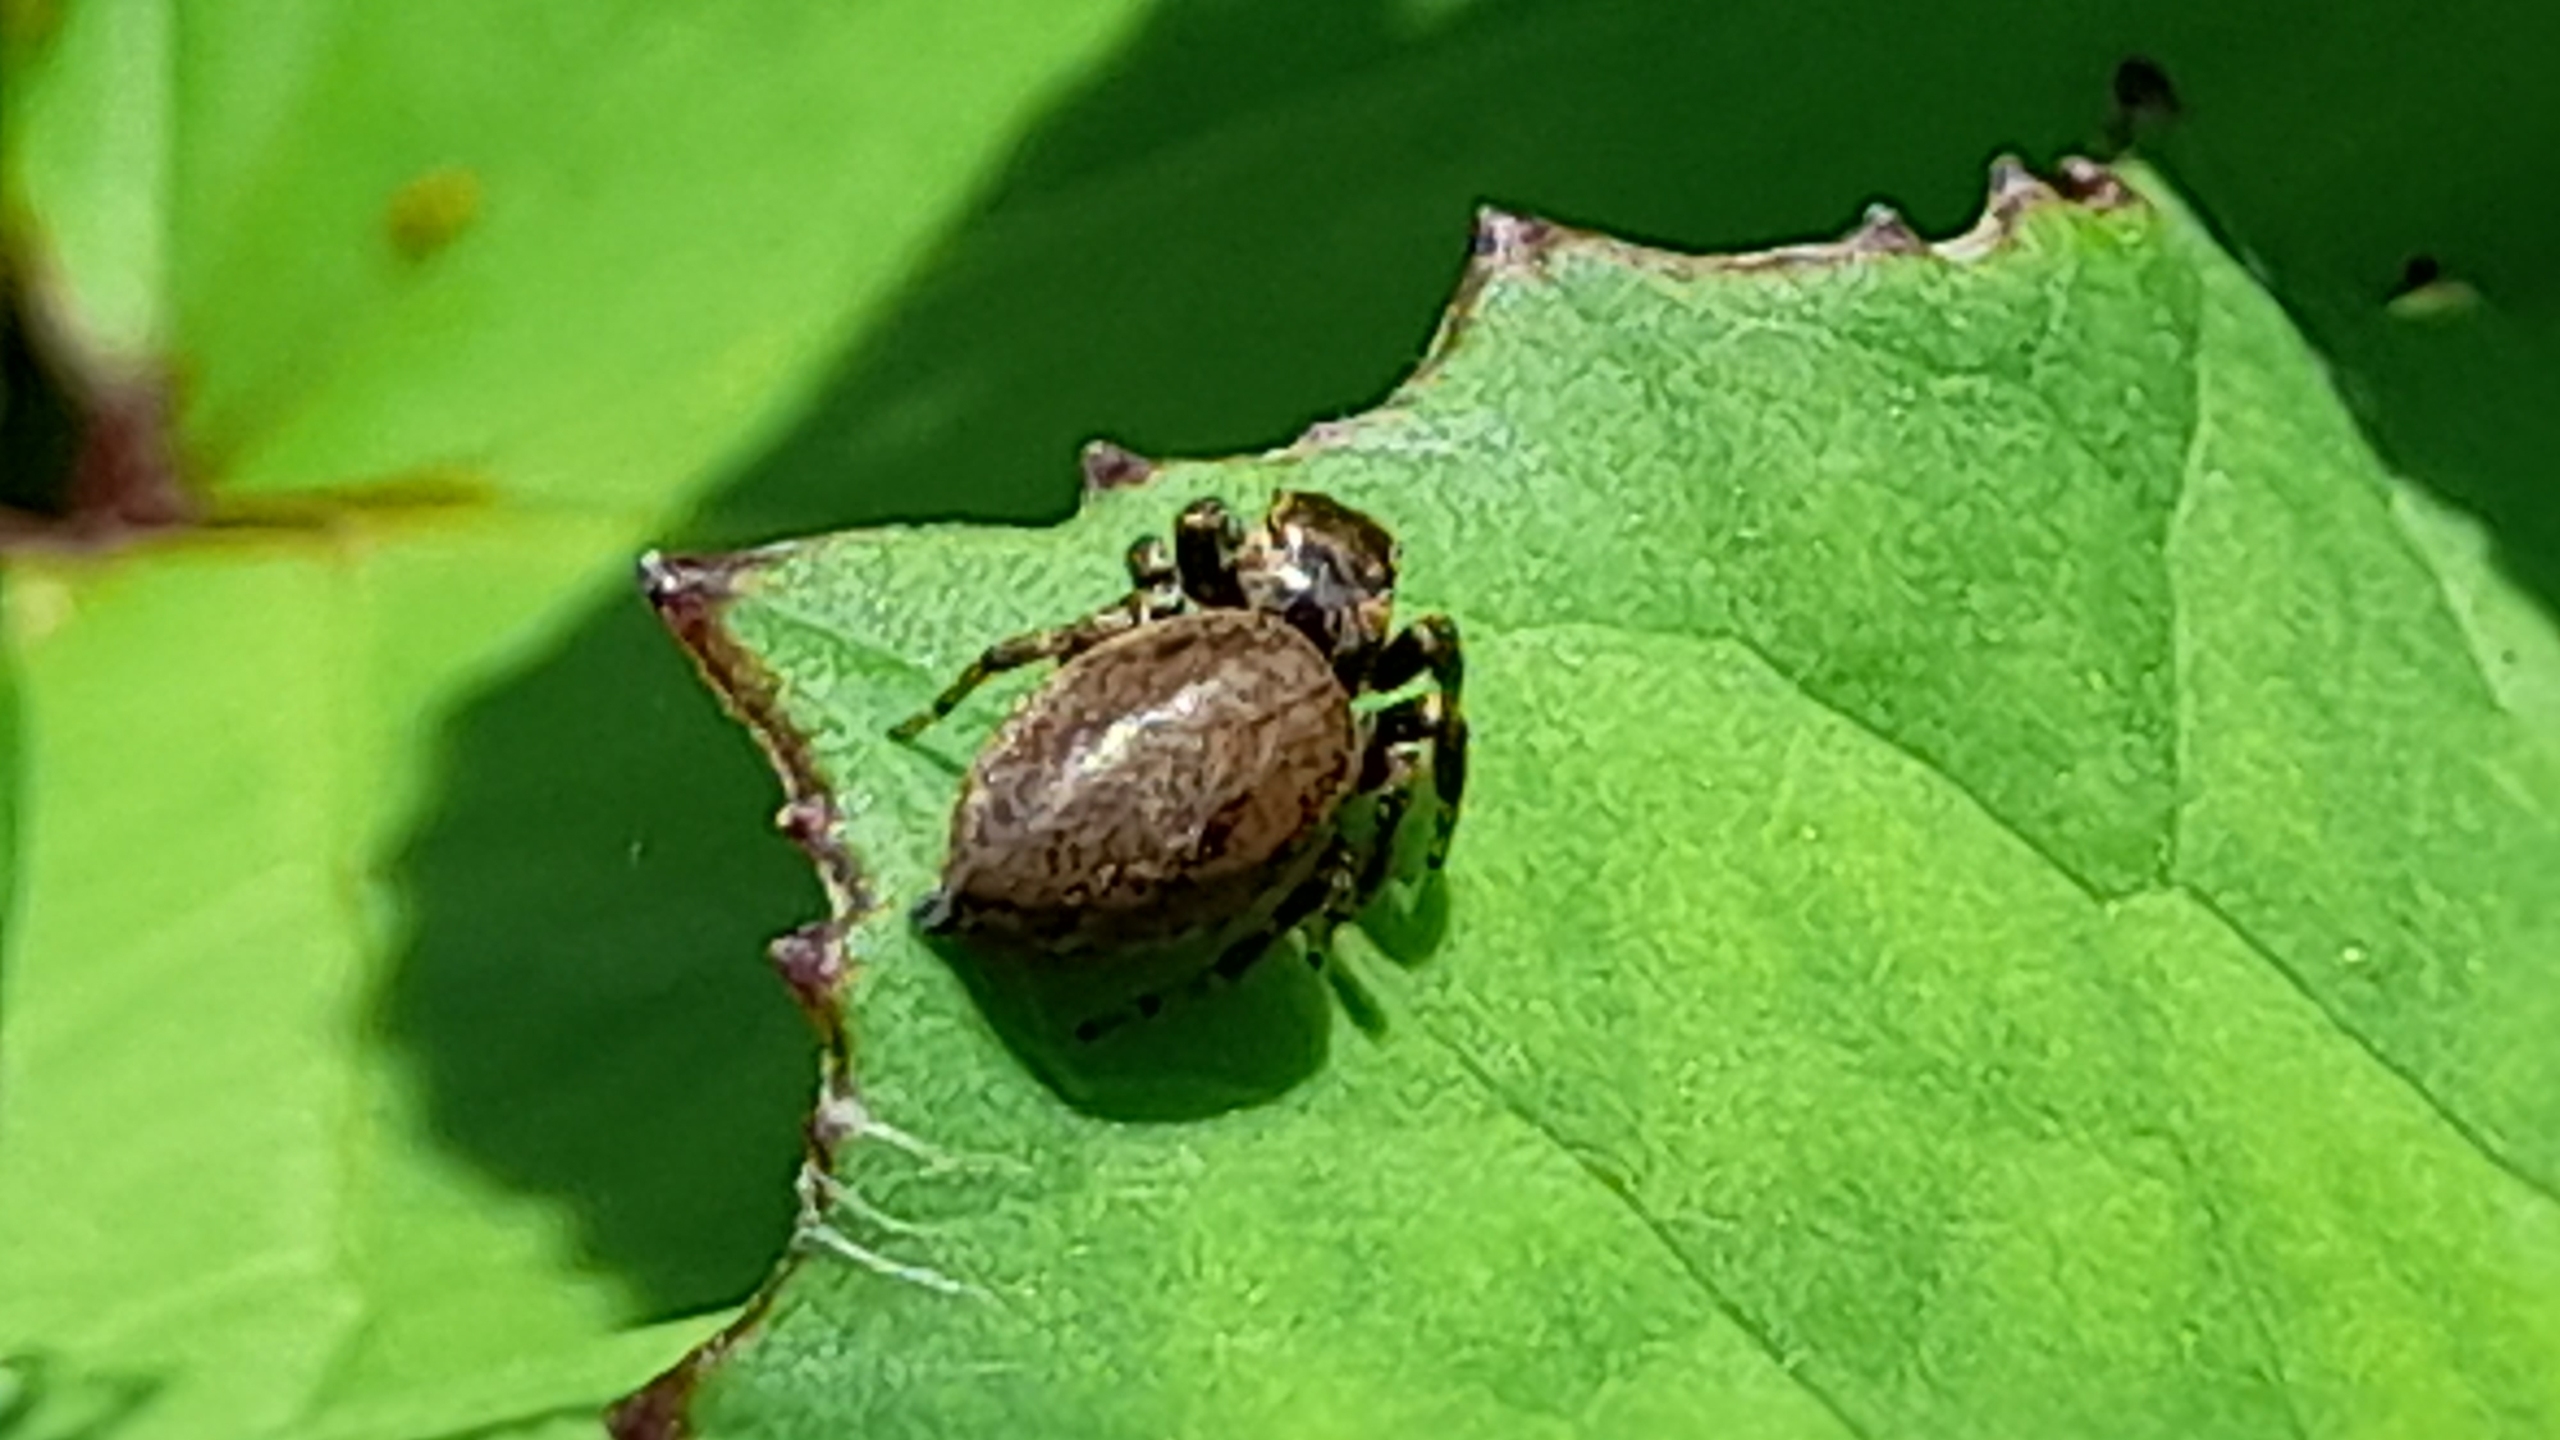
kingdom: Animalia
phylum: Arthropoda
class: Arachnida
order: Araneae
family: Salticidae
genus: Evarcha
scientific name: Evarcha
